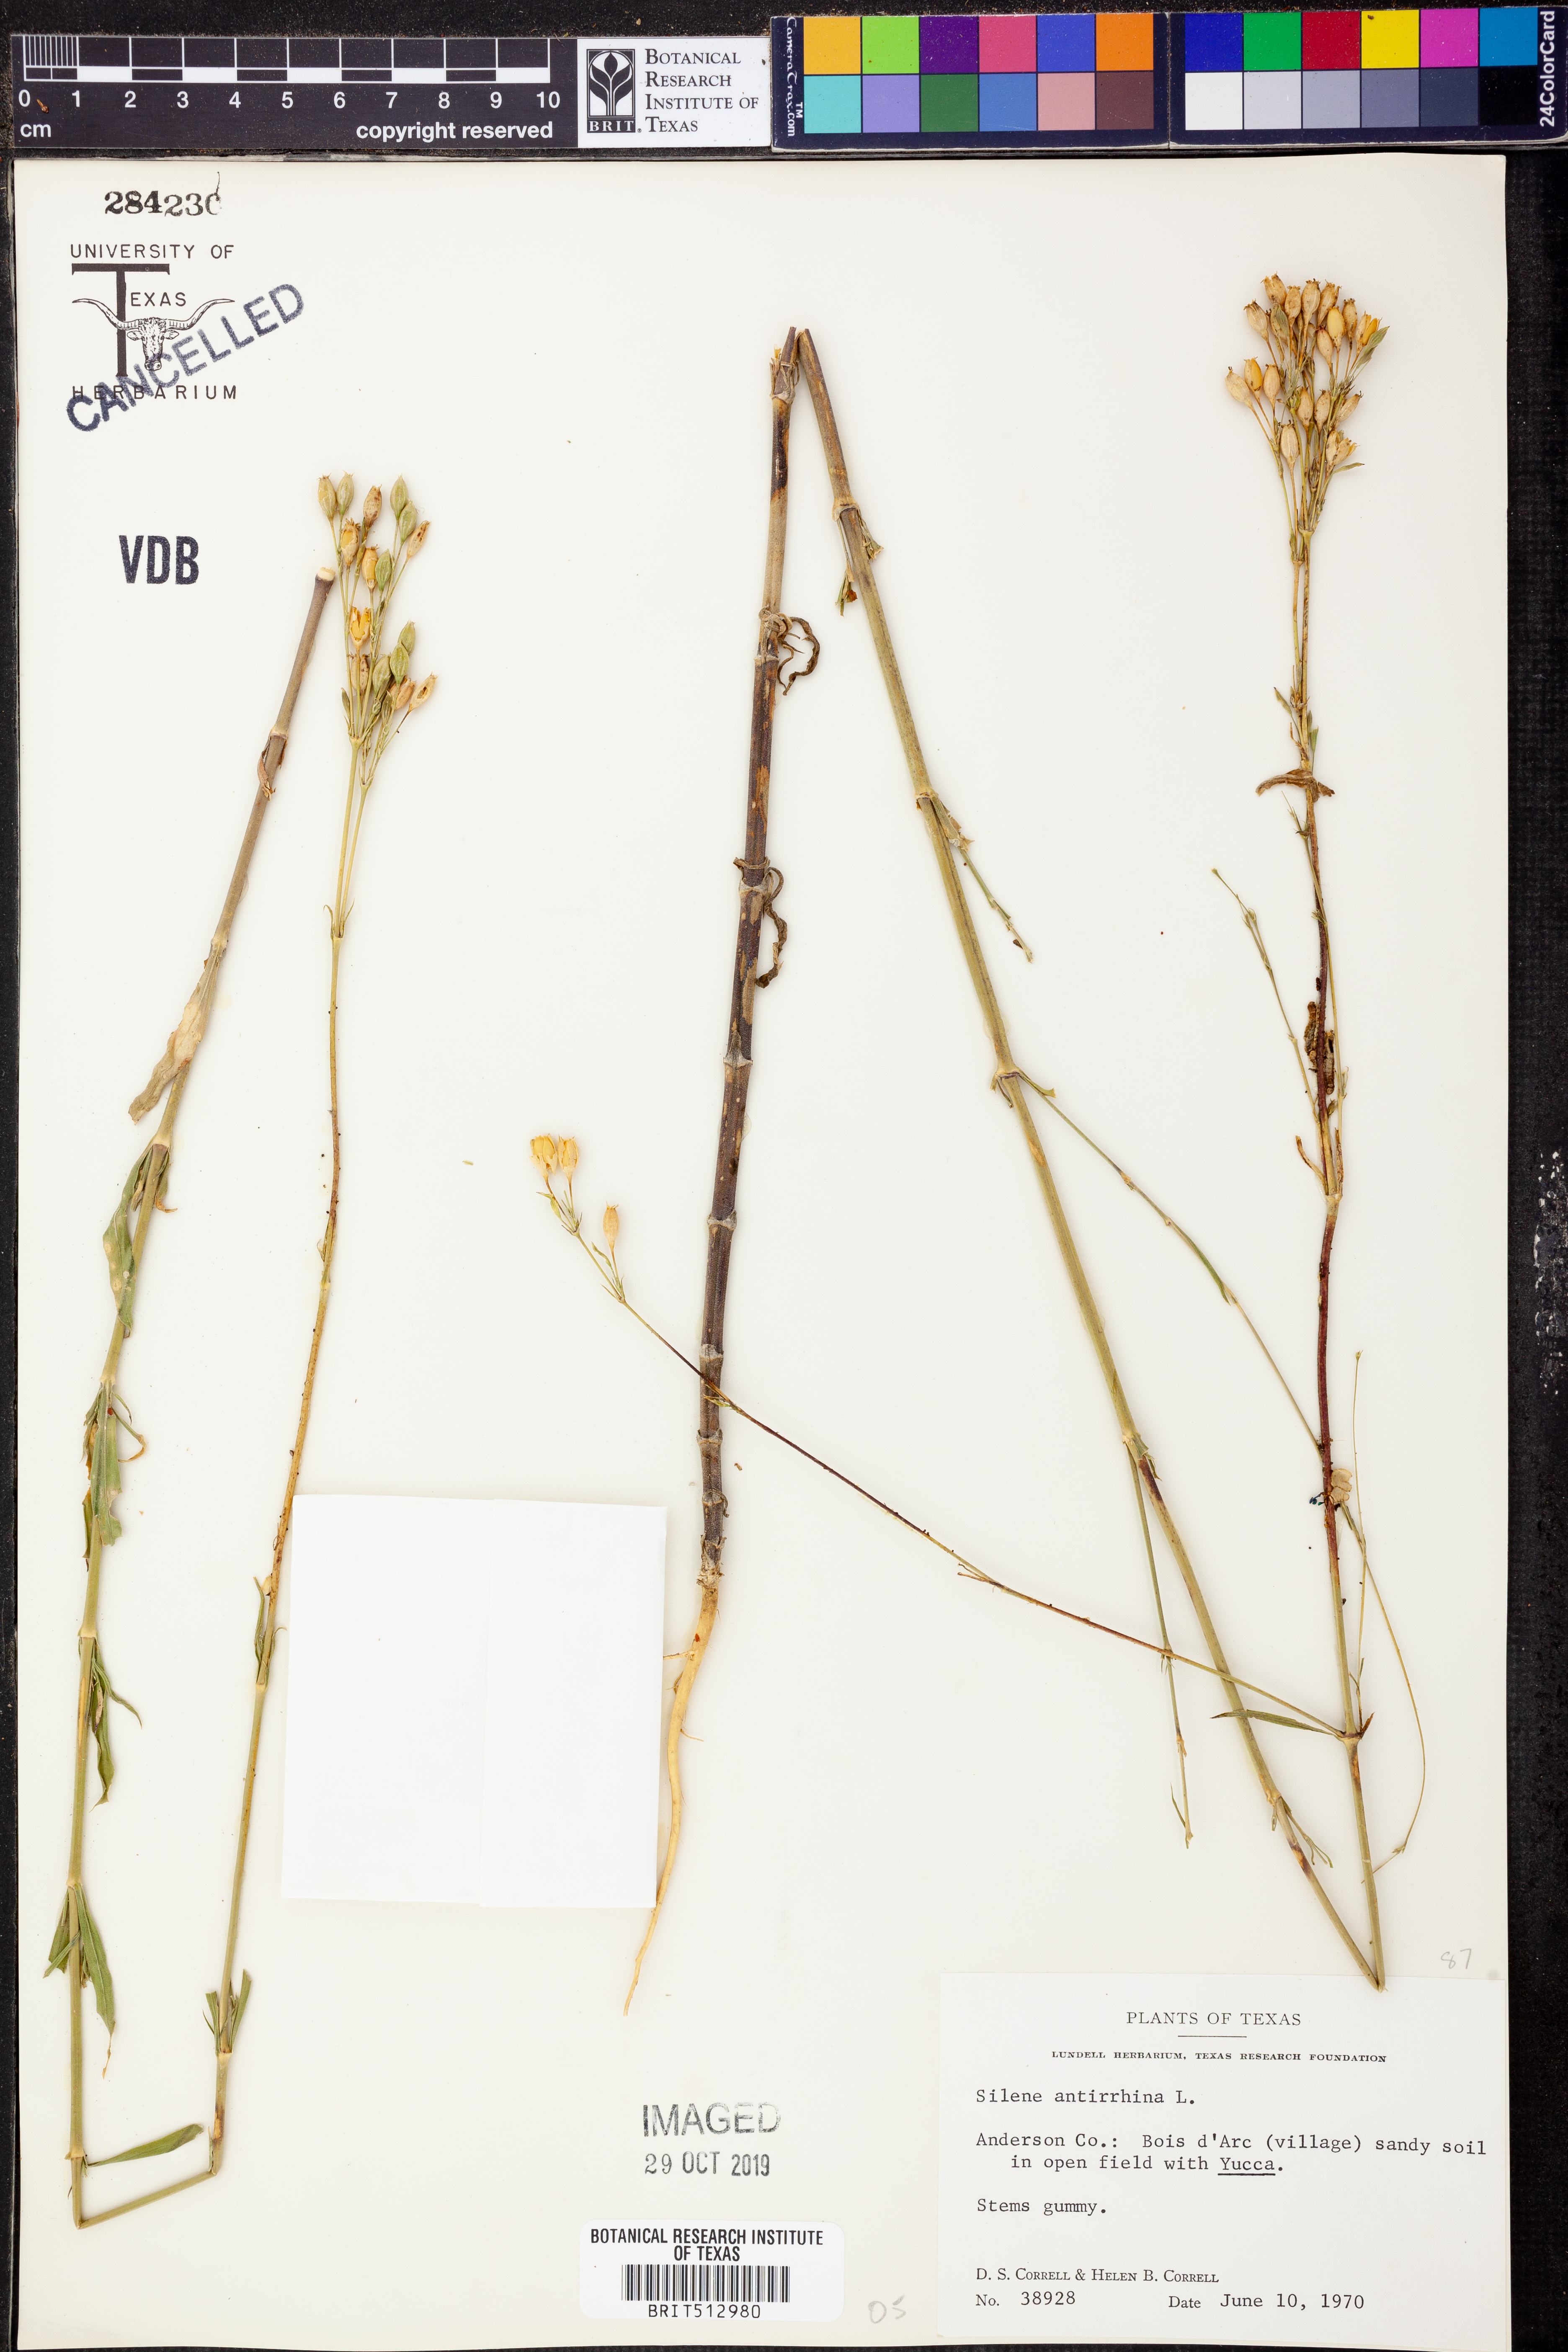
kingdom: Plantae
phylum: Tracheophyta
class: Magnoliopsida
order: Caryophyllales
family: Caryophyllaceae
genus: Silene
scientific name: Silene antirrhina
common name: Sleepy catchfly
